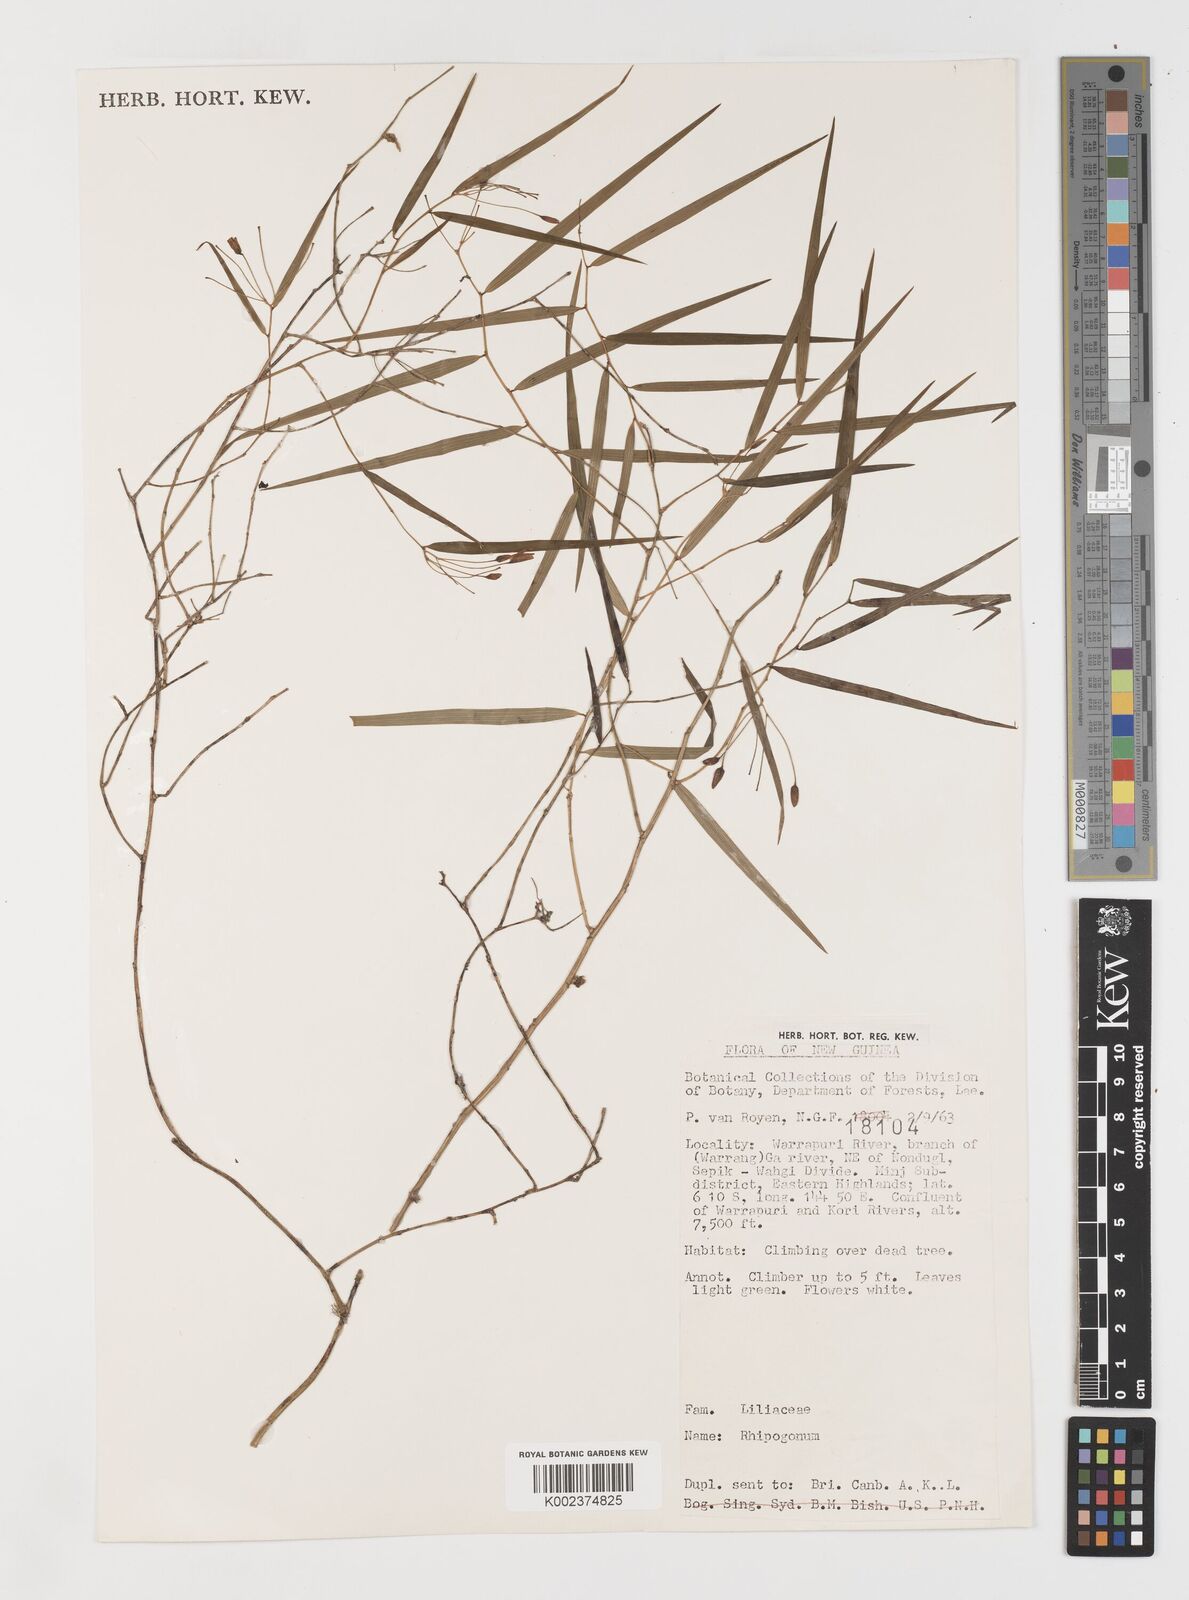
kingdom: Plantae
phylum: Tracheophyta
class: Liliopsida
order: Liliales
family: Ripogonaceae
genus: Ripogonum
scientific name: Ripogonum
